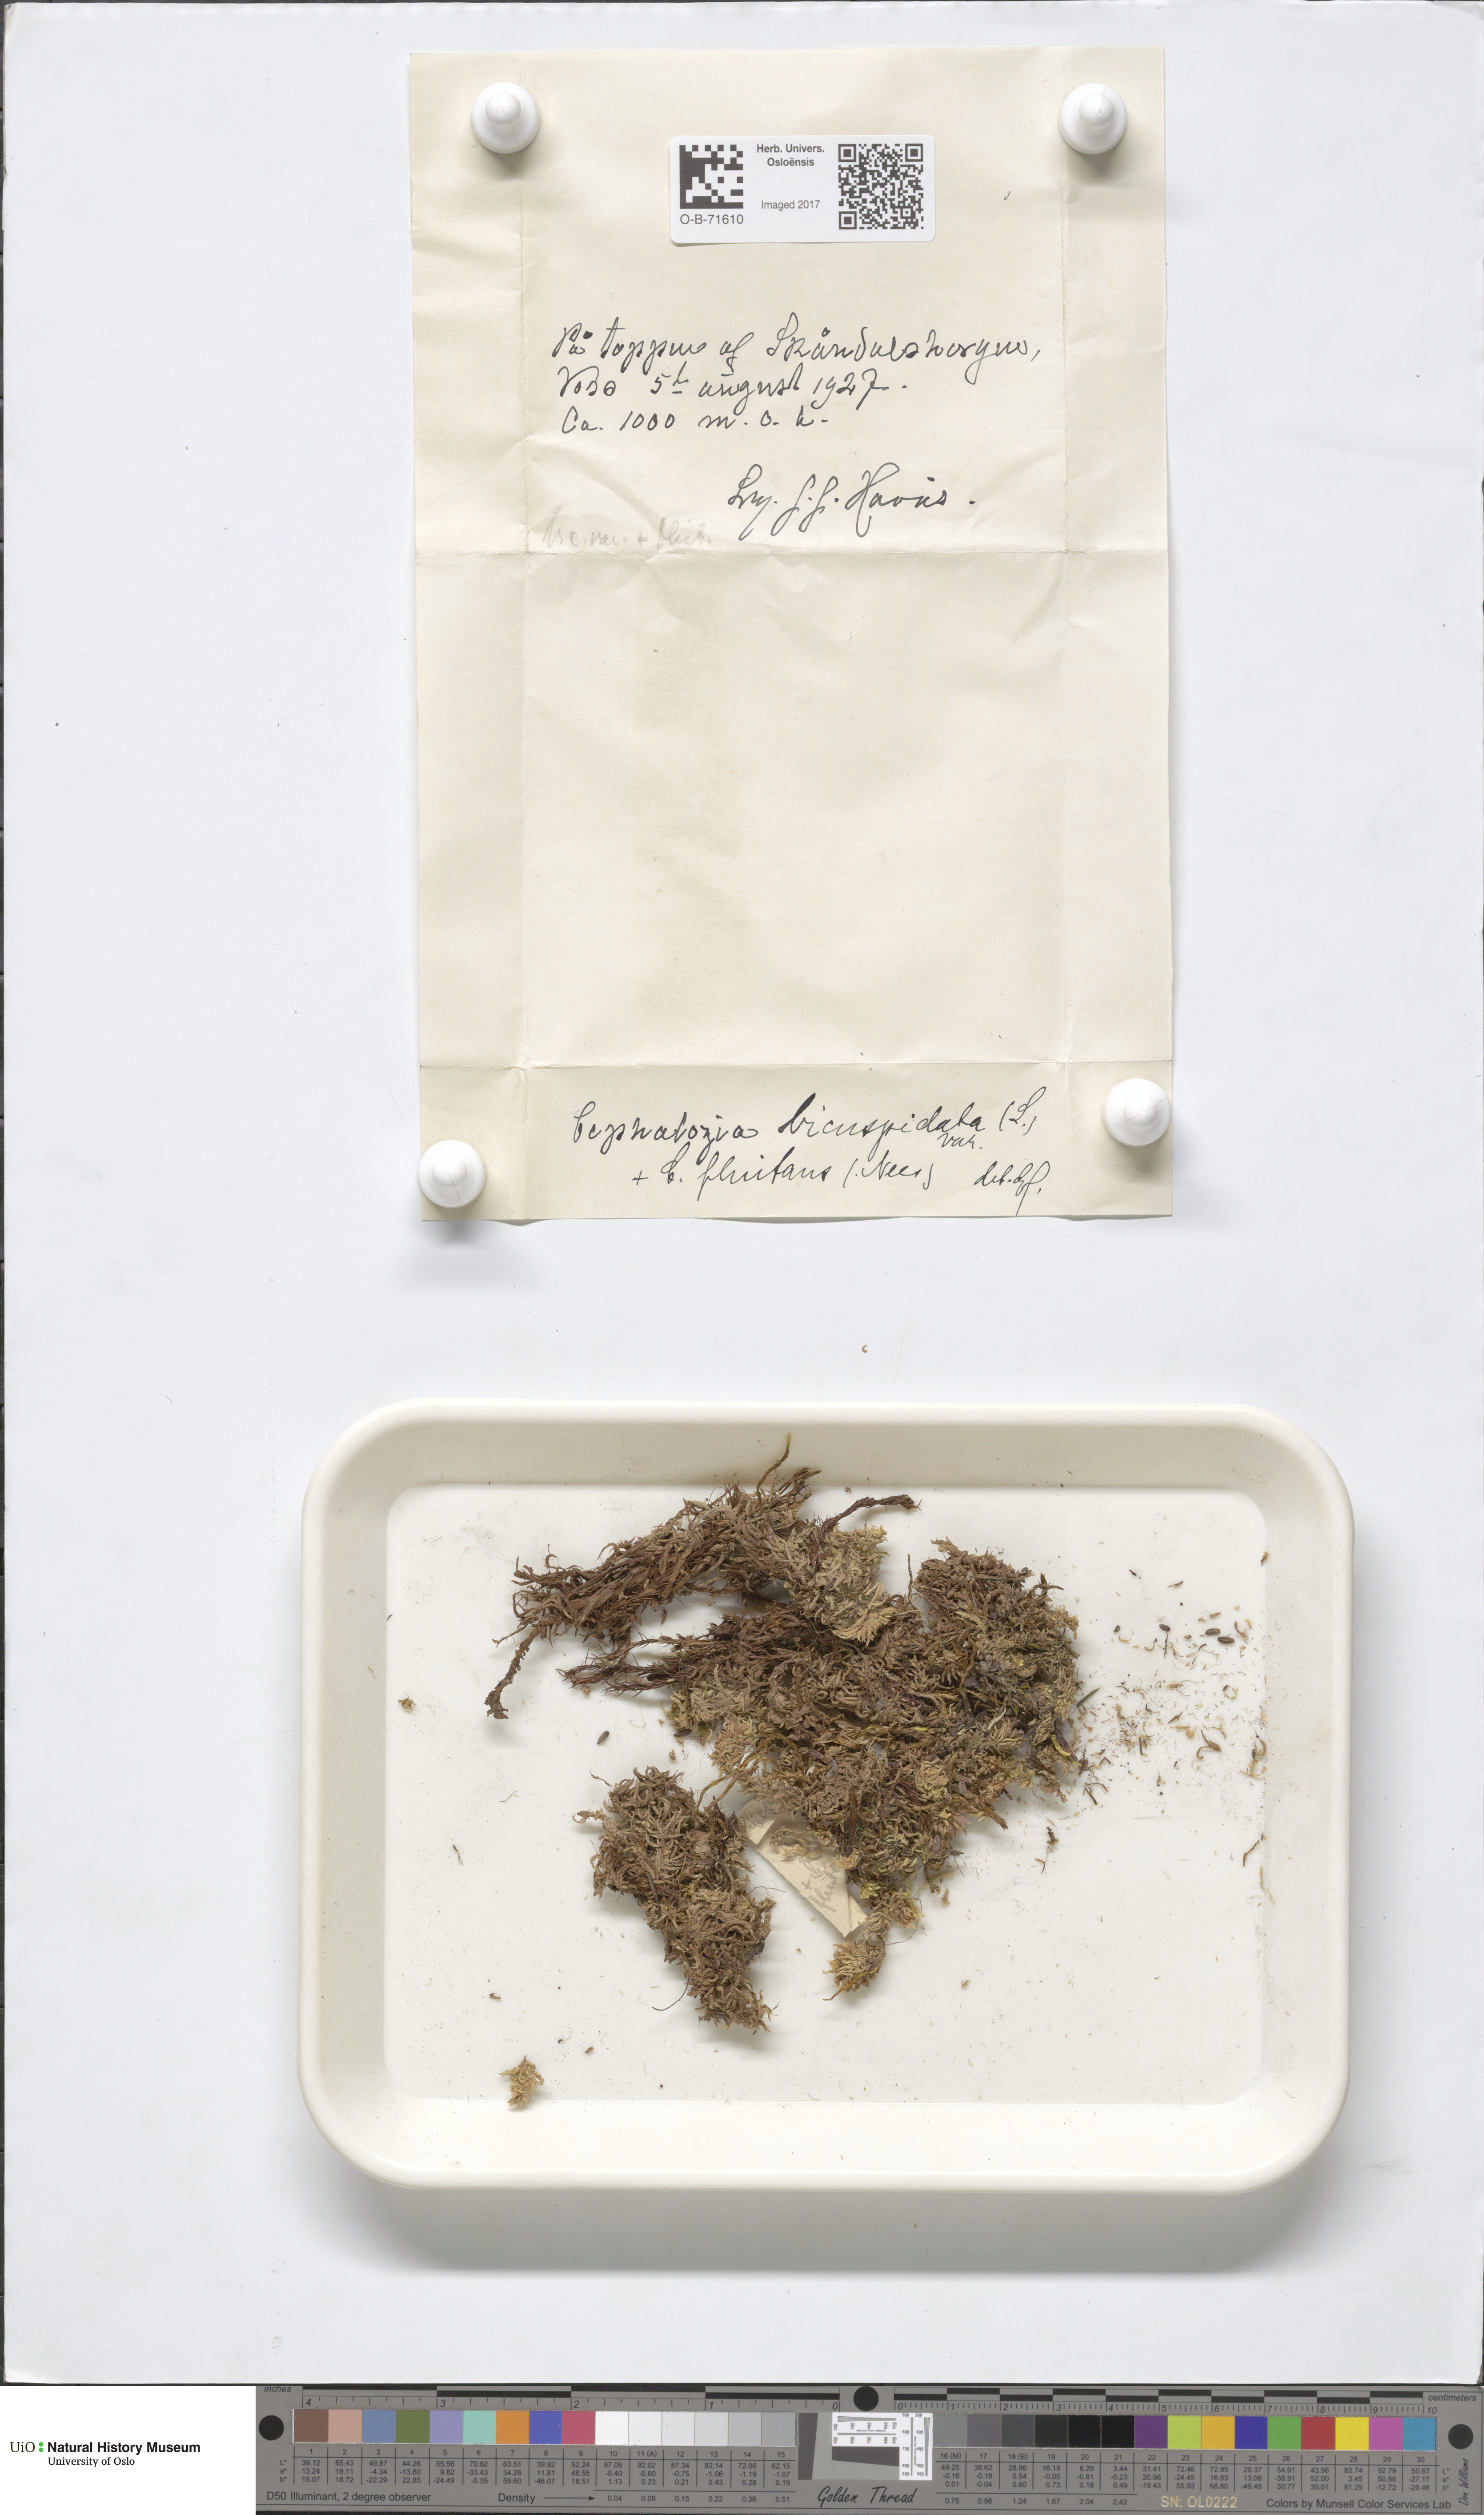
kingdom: Plantae
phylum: Marchantiophyta
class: Jungermanniopsida
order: Jungermanniales
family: Cephaloziaceae
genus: Cephalozia
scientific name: Cephalozia bicuspidata
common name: Two-horned pincerwort
